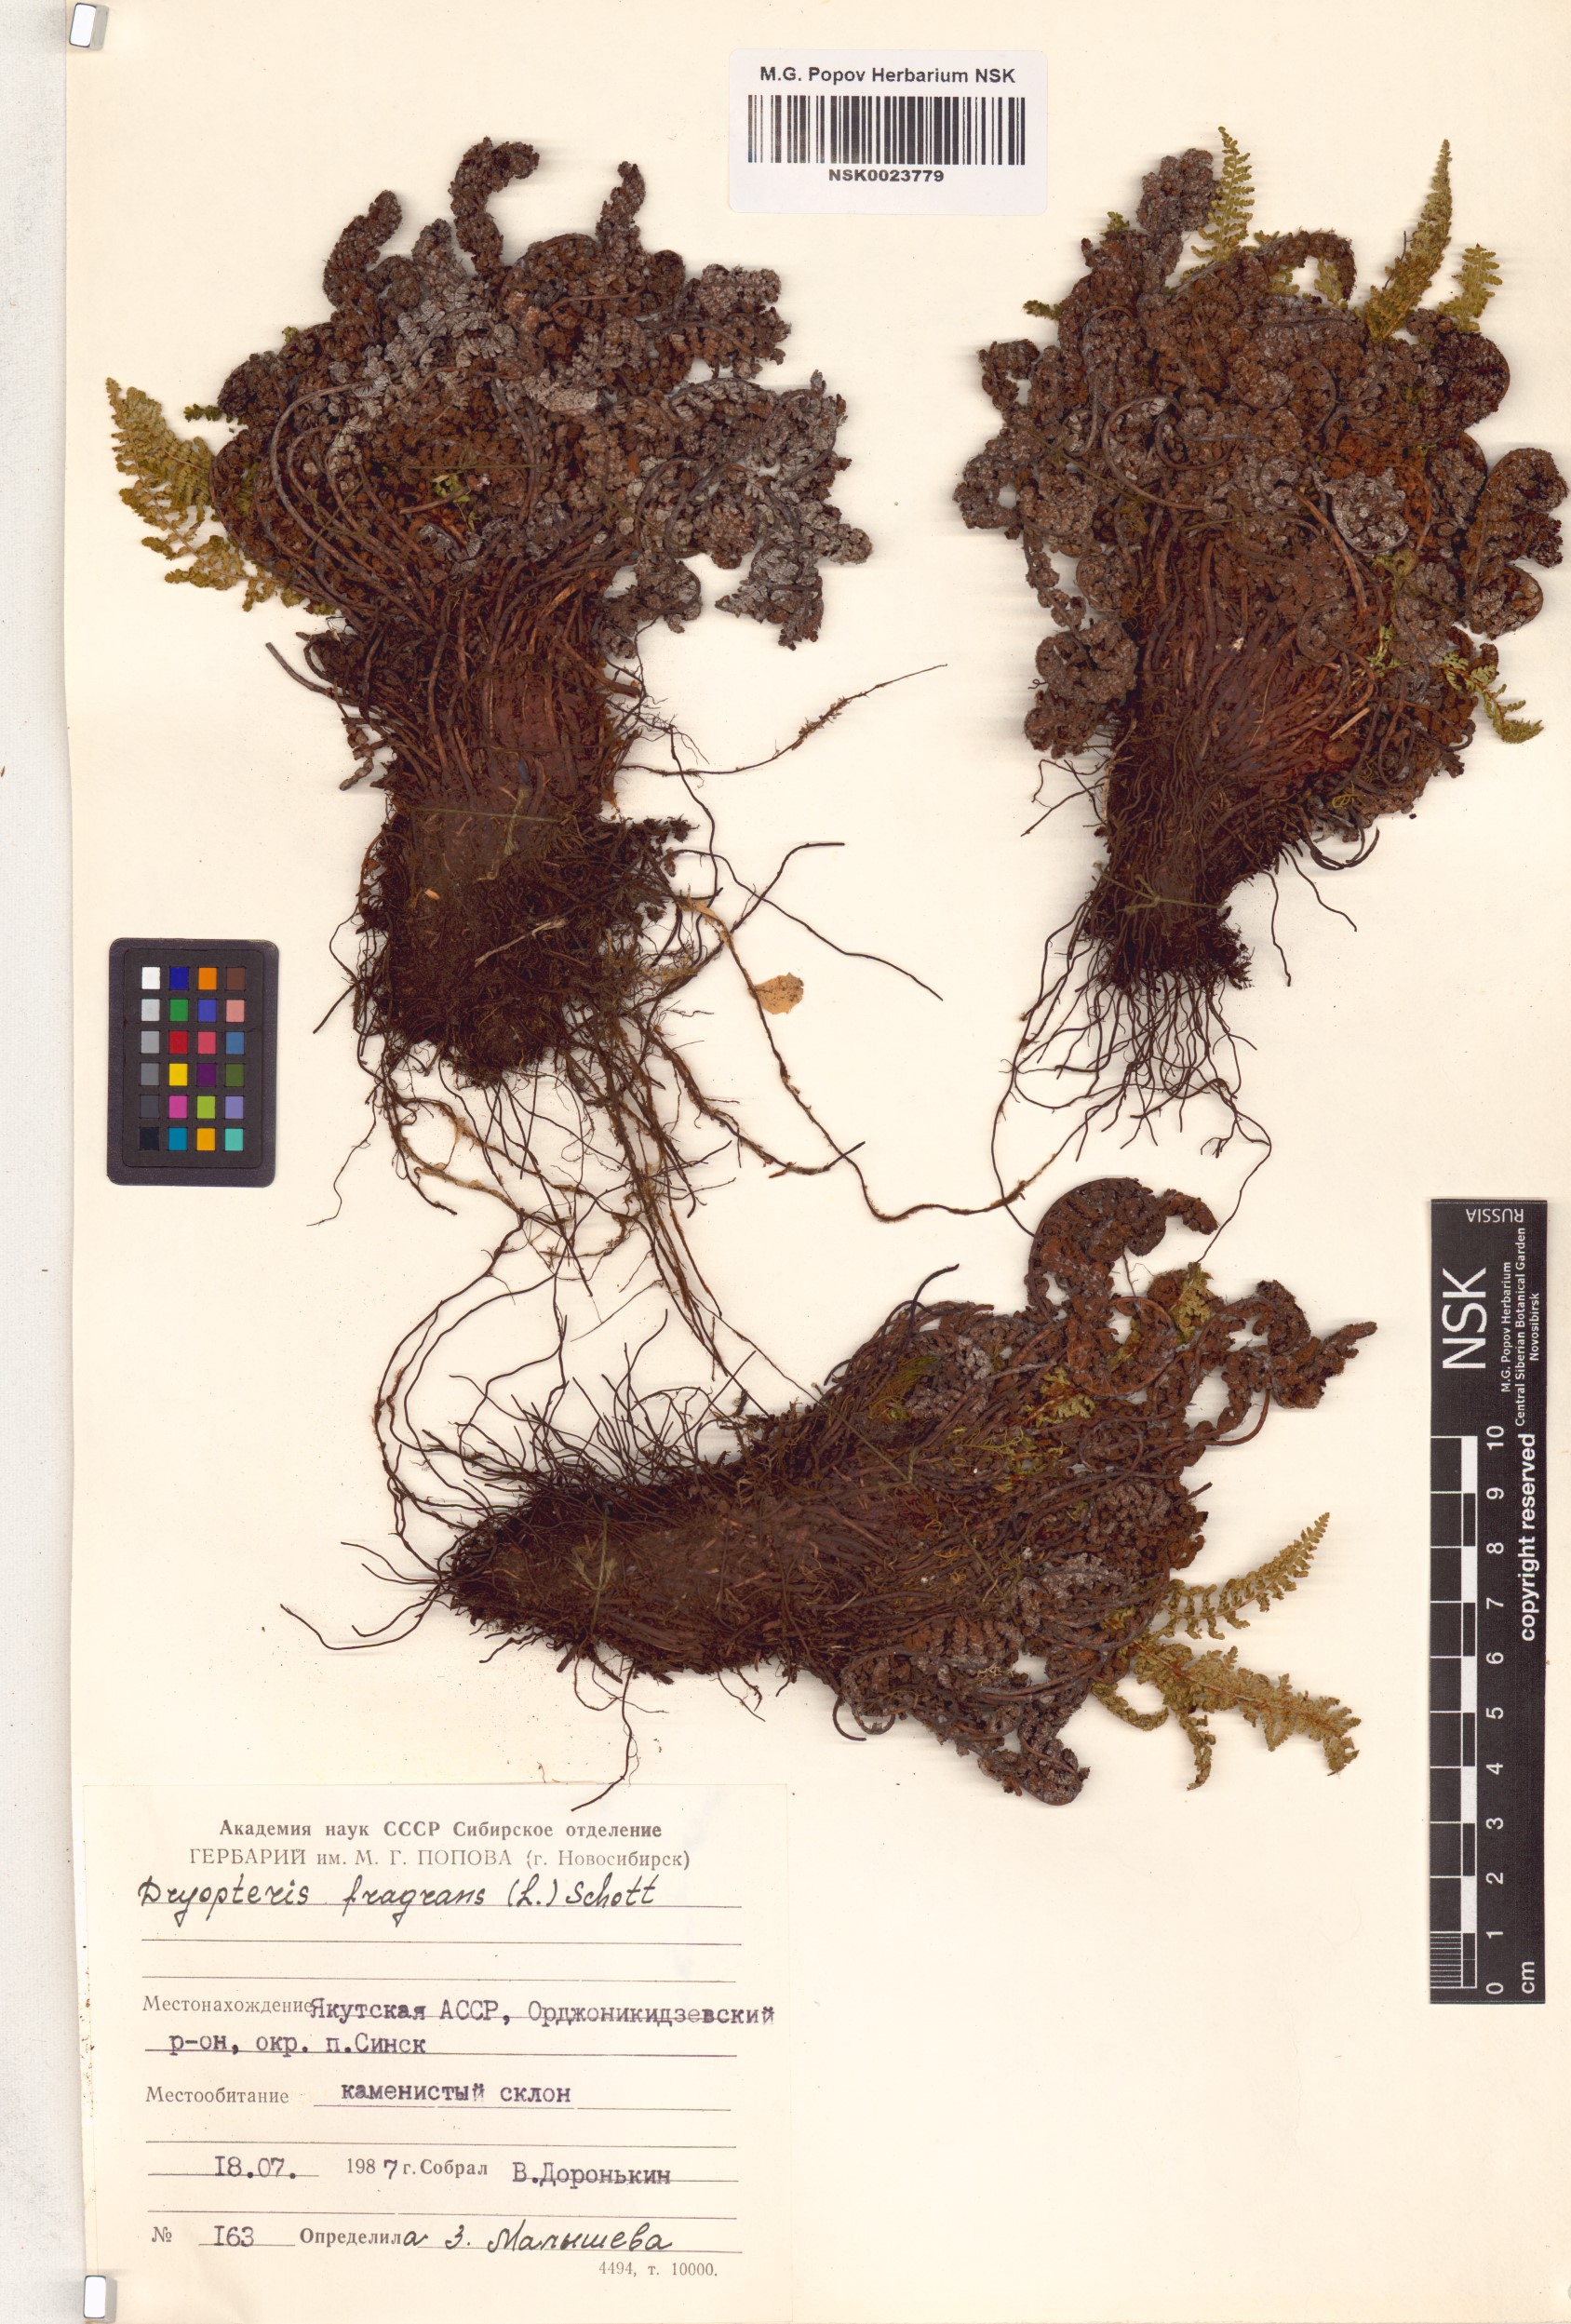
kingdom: Plantae
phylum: Tracheophyta
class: Polypodiopsida
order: Polypodiales
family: Dryopteridaceae
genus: Dryopteris
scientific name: Dryopteris fragrans
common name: Fragrant wood fern
